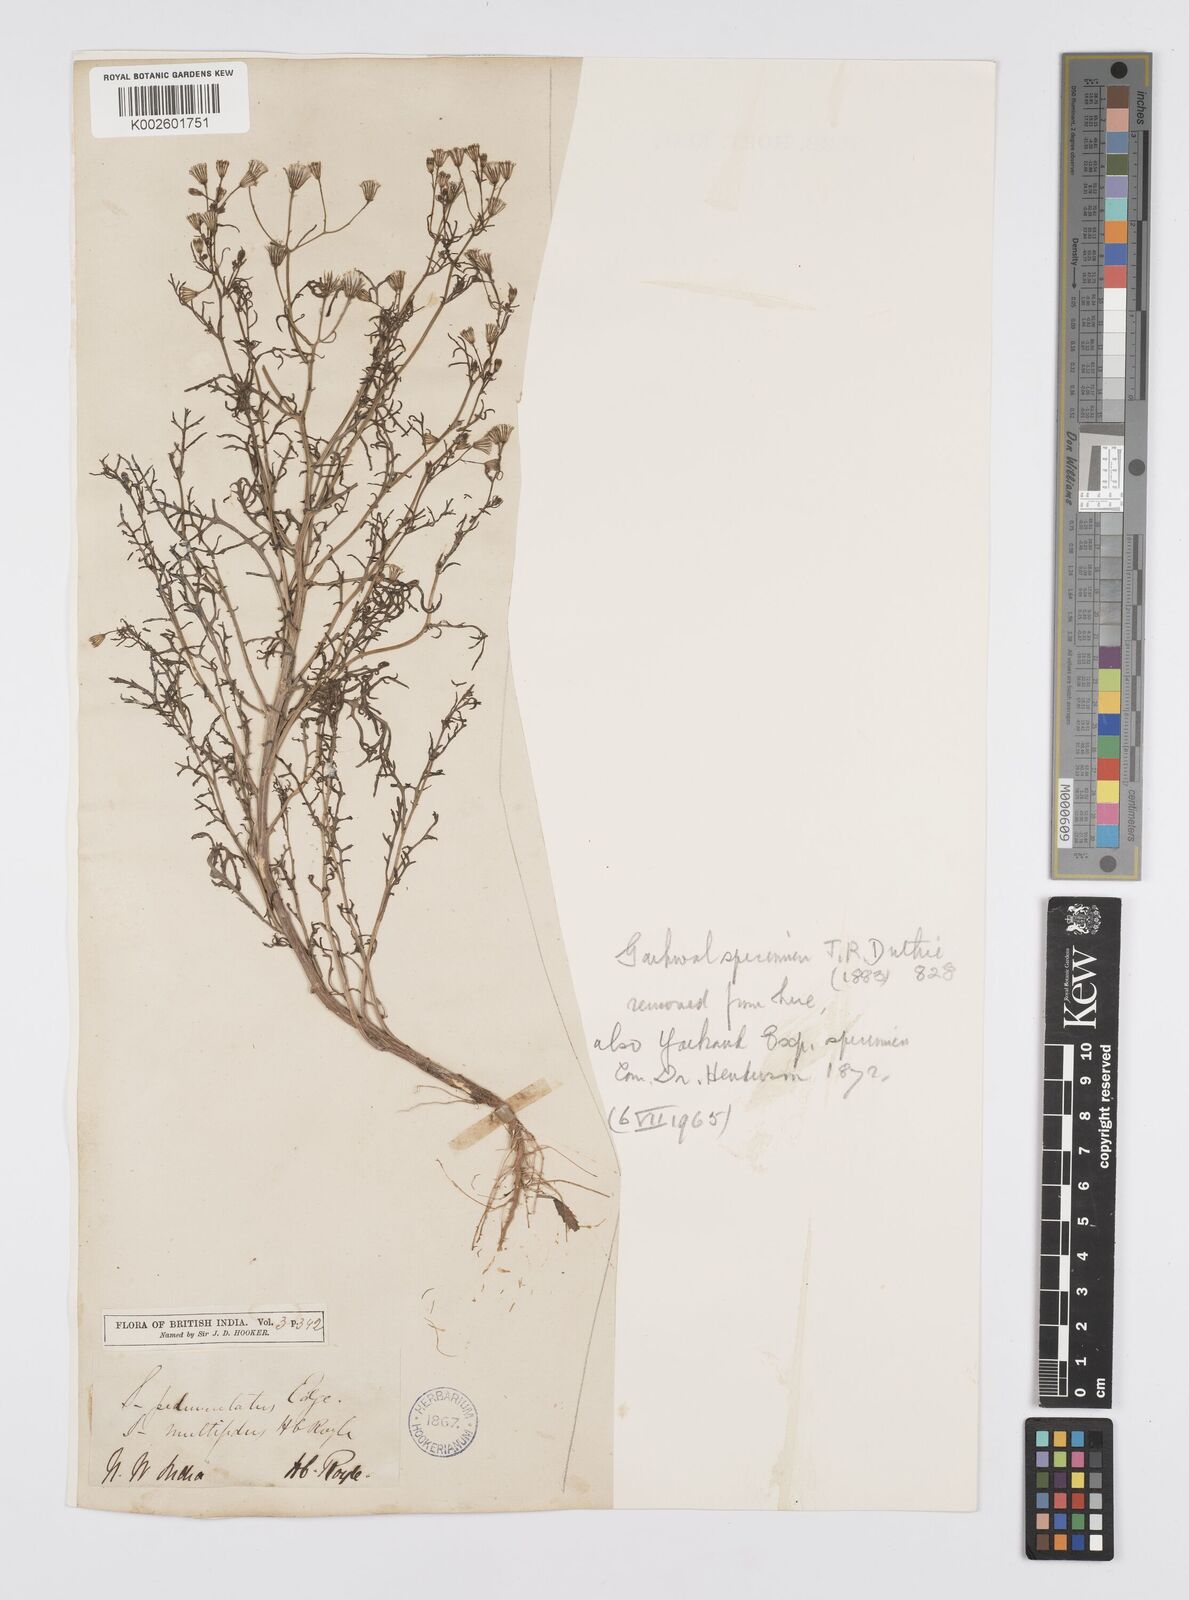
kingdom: Plantae
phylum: Tracheophyta
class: Magnoliopsida
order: Asterales
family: Asteraceae
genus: Senecio
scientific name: Senecio krascheninnikovii
